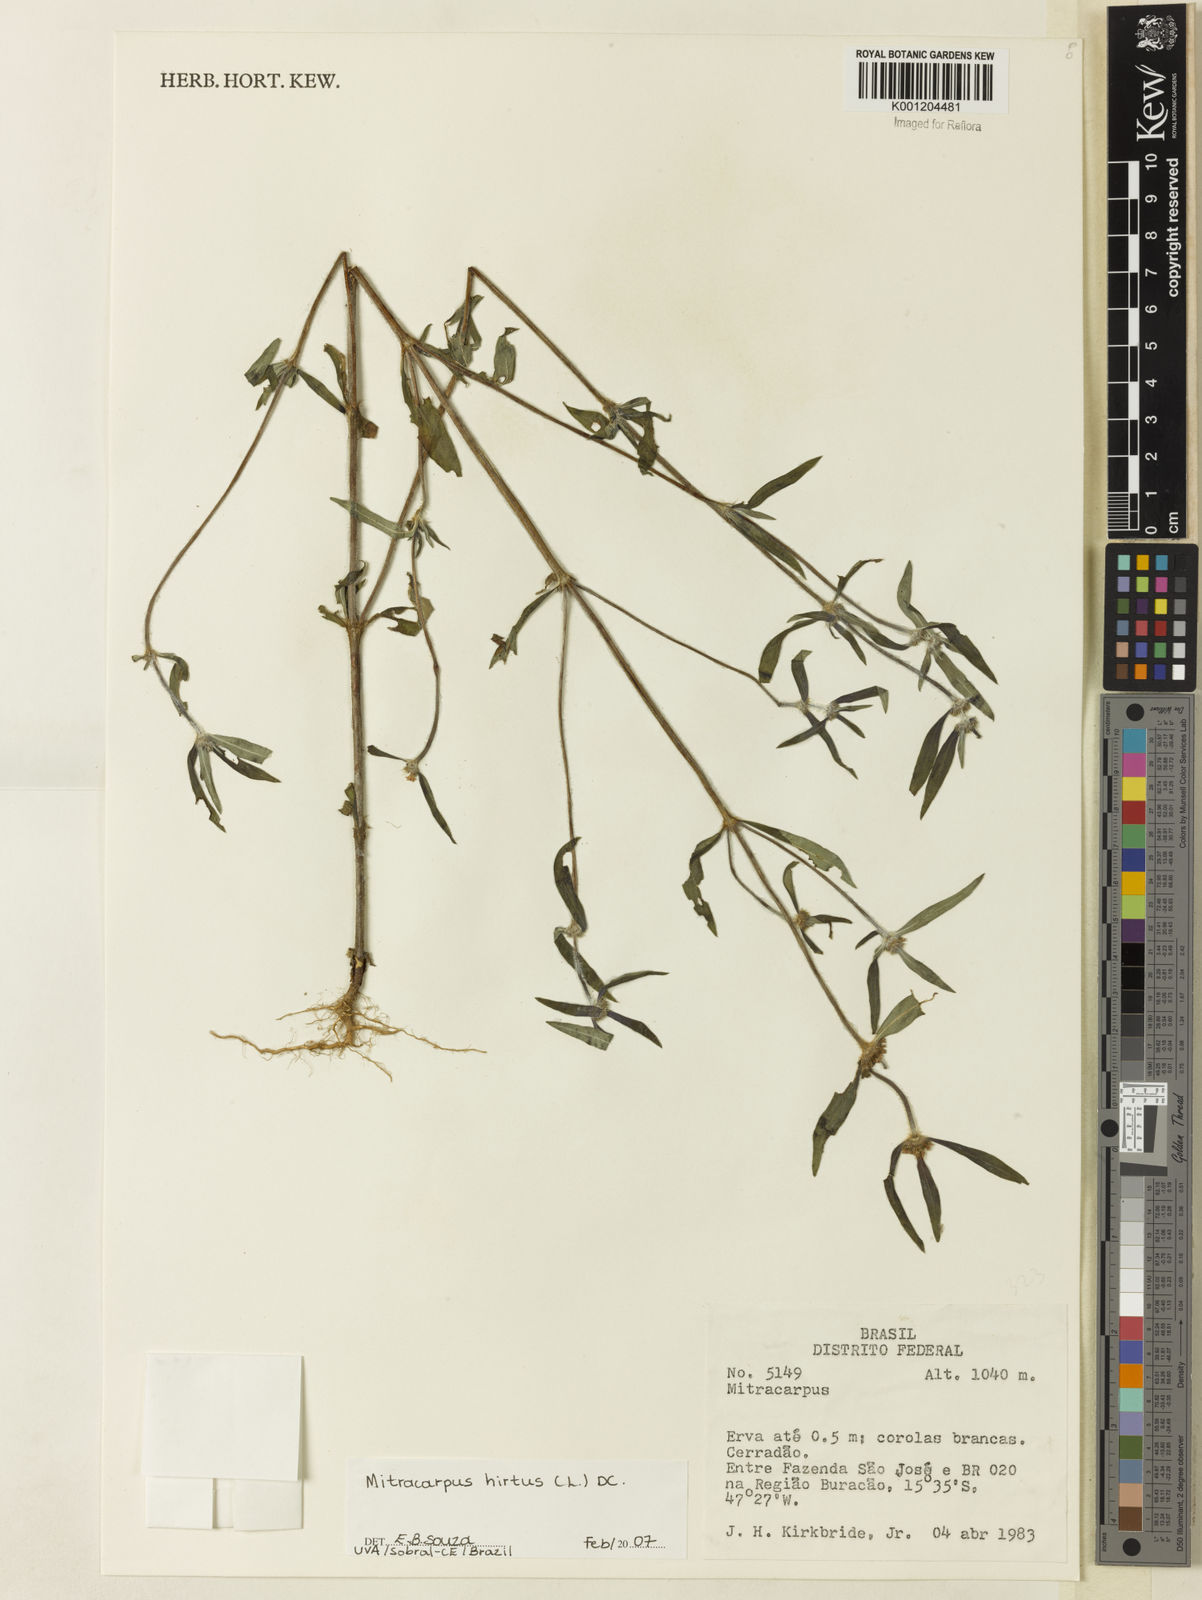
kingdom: Plantae
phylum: Tracheophyta
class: Magnoliopsida
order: Gentianales
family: Rubiaceae
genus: Mitracarpus
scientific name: Mitracarpus hirtus
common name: Tropical girdlepod
